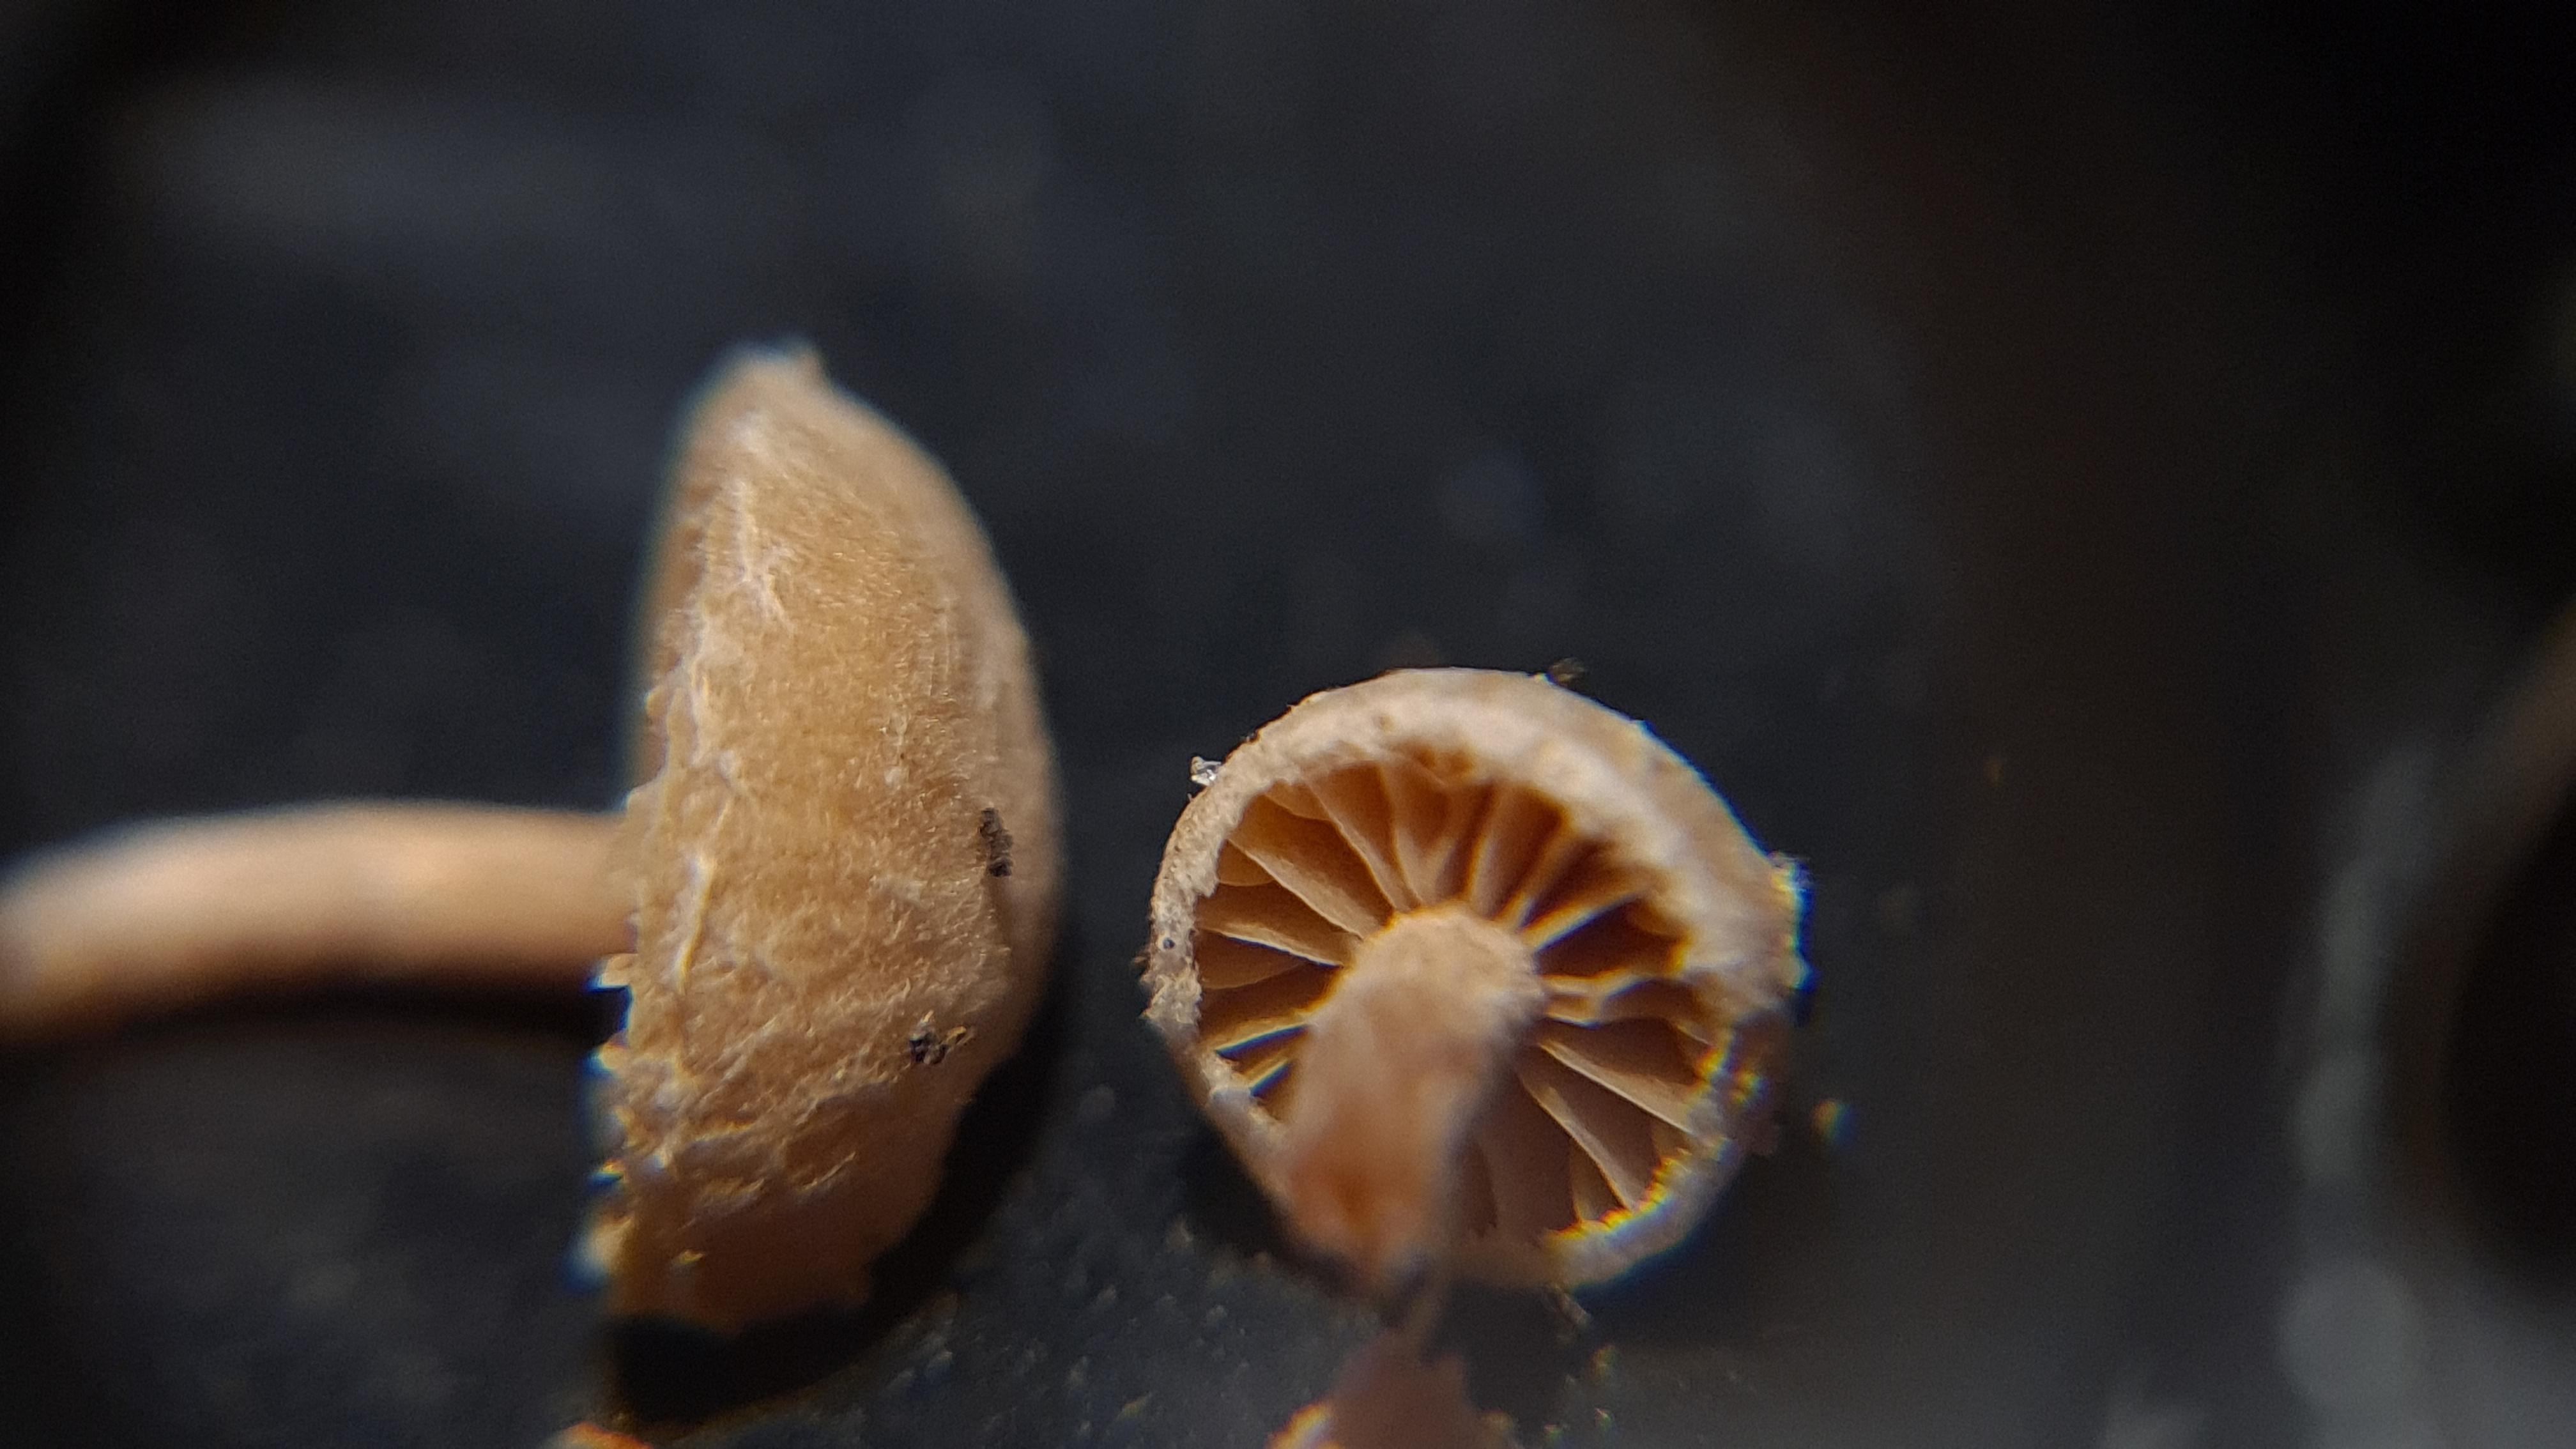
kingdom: Fungi
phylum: Basidiomycota
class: Agaricomycetes
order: Agaricales
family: Tubariaceae
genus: Tubaria
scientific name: Tubaria conspersa
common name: bleg fnughat
